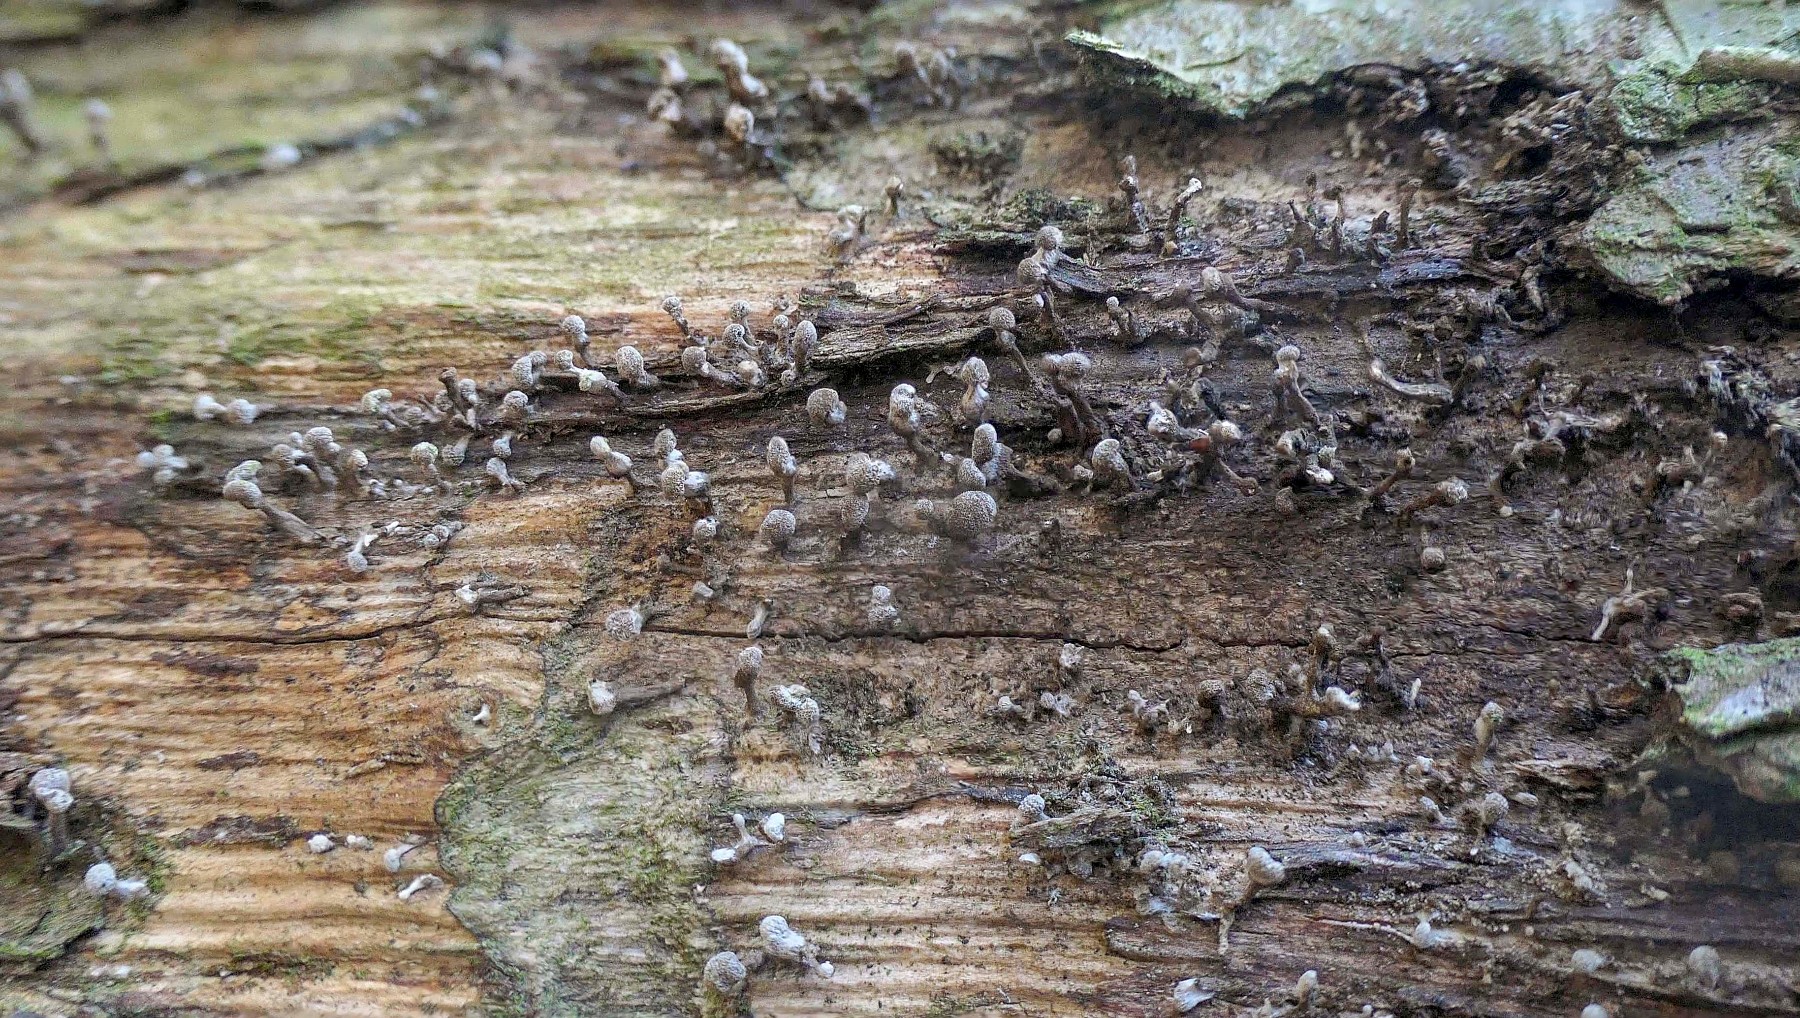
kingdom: Fungi
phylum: Basidiomycota
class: Atractiellomycetes
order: Atractiellales
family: Phleogenaceae
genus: Phleogena
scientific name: Phleogena faginea
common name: pudderkølle
